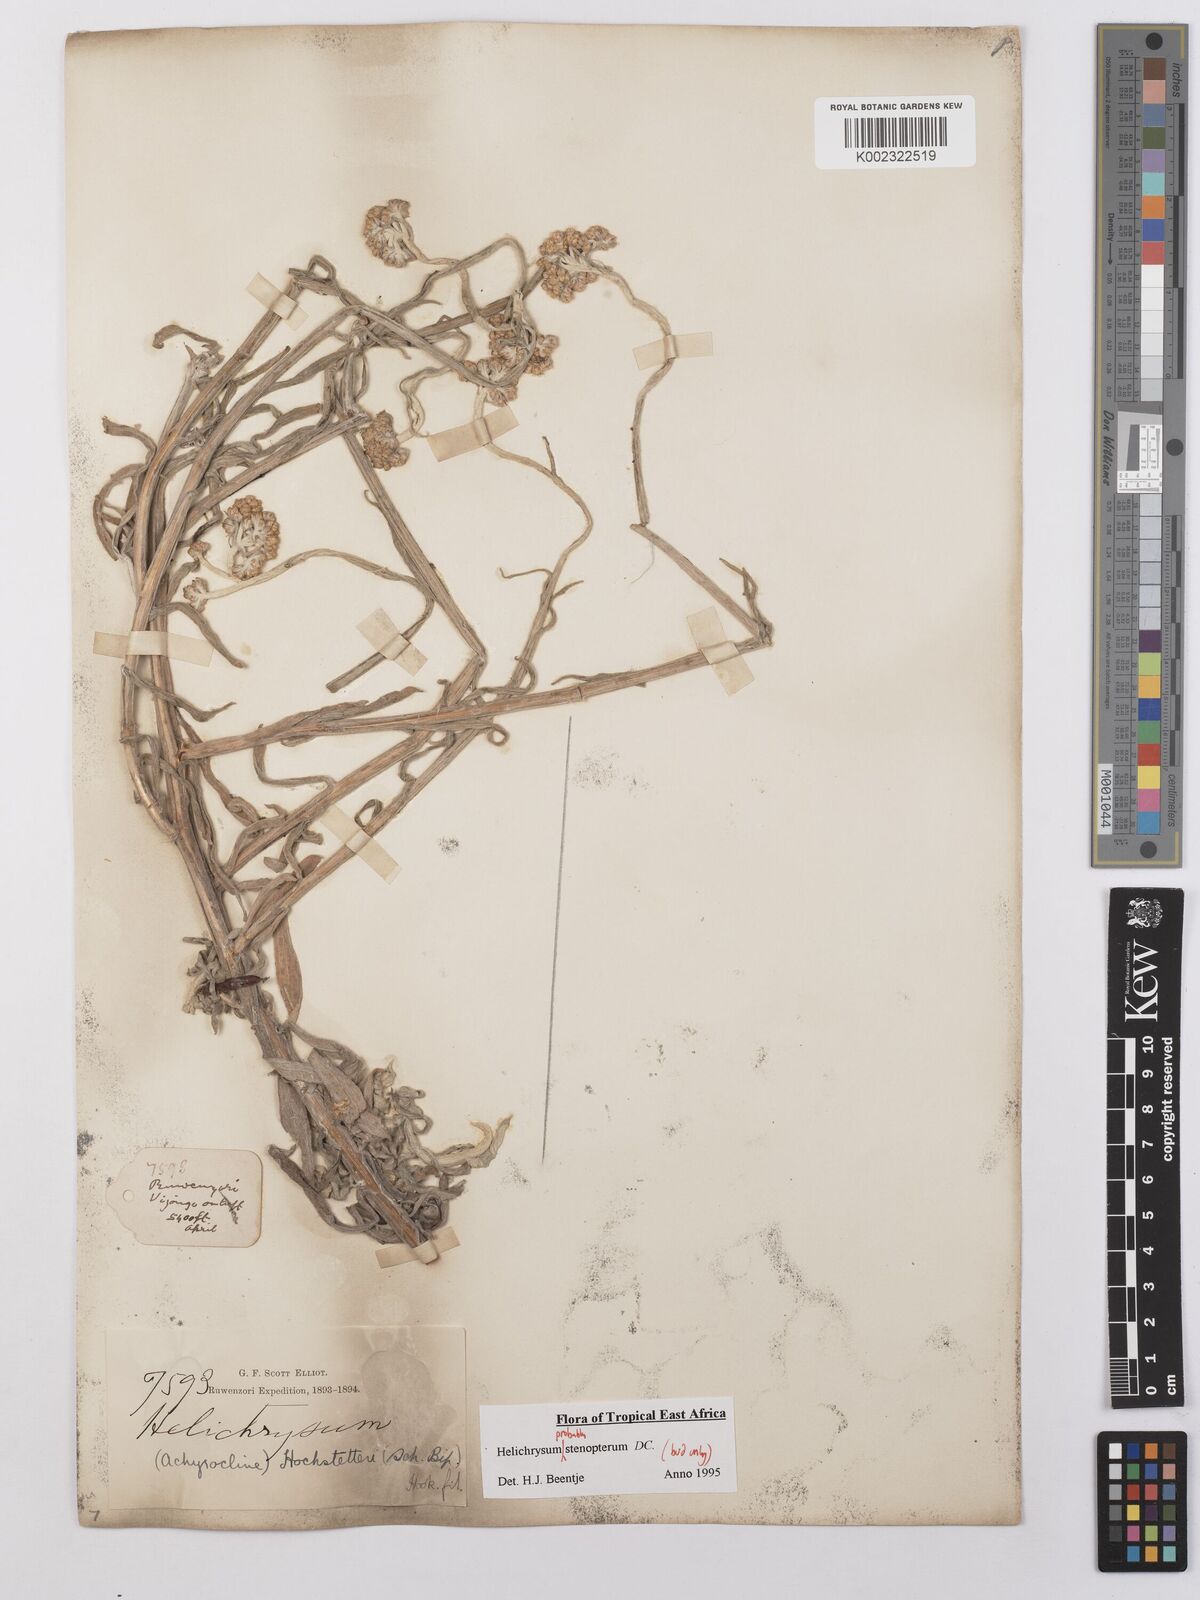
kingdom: Plantae
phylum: Tracheophyta
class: Magnoliopsida
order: Asterales
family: Asteraceae
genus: Helichrysum
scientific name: Helichrysum stenopterum
